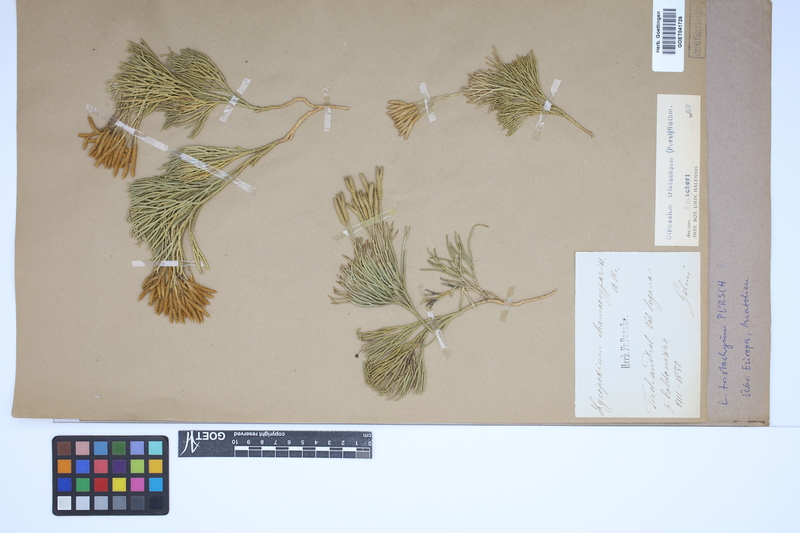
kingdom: Plantae
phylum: Tracheophyta
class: Lycopodiopsida
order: Lycopodiales
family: Lycopodiaceae
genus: Diphasiastrum
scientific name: Diphasiastrum tristachyum
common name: Blue ground-cedar
